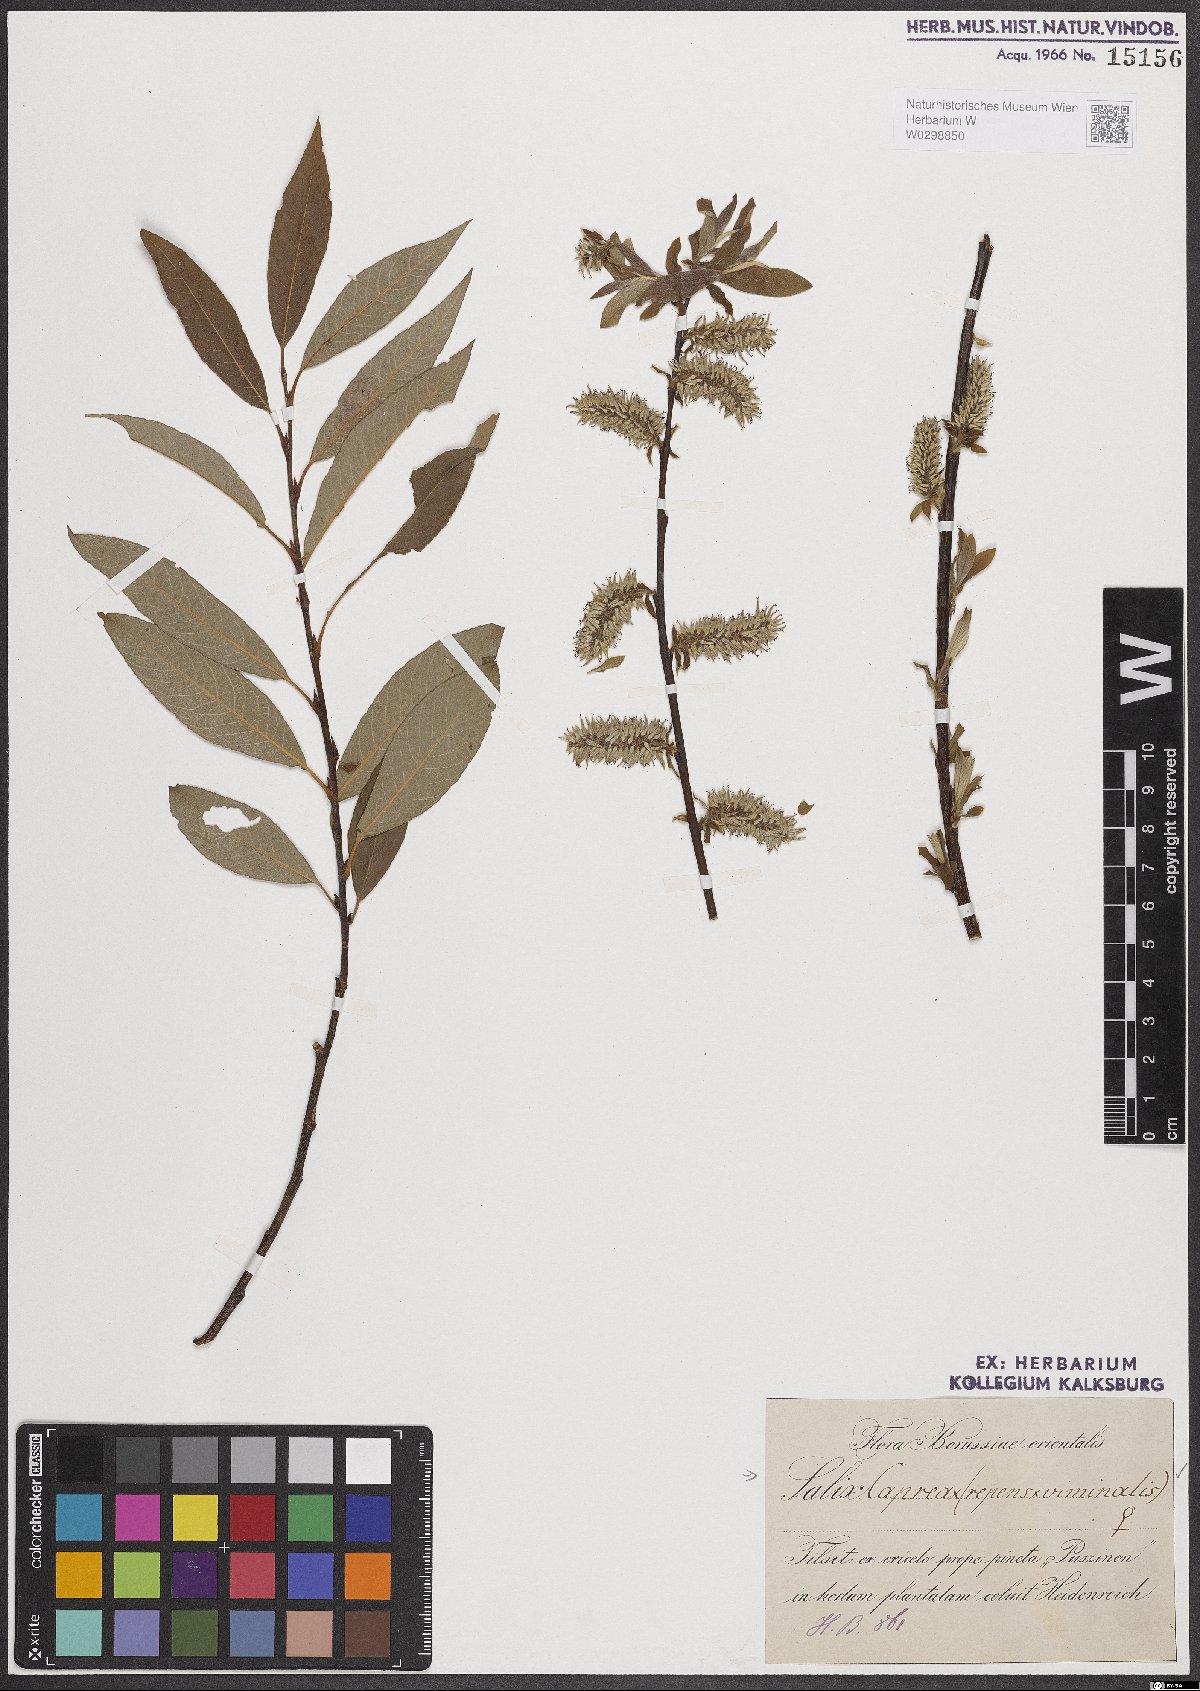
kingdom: Plantae
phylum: Tracheophyta
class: Magnoliopsida
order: Malpighiales
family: Salicaceae
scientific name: Salicaceae
